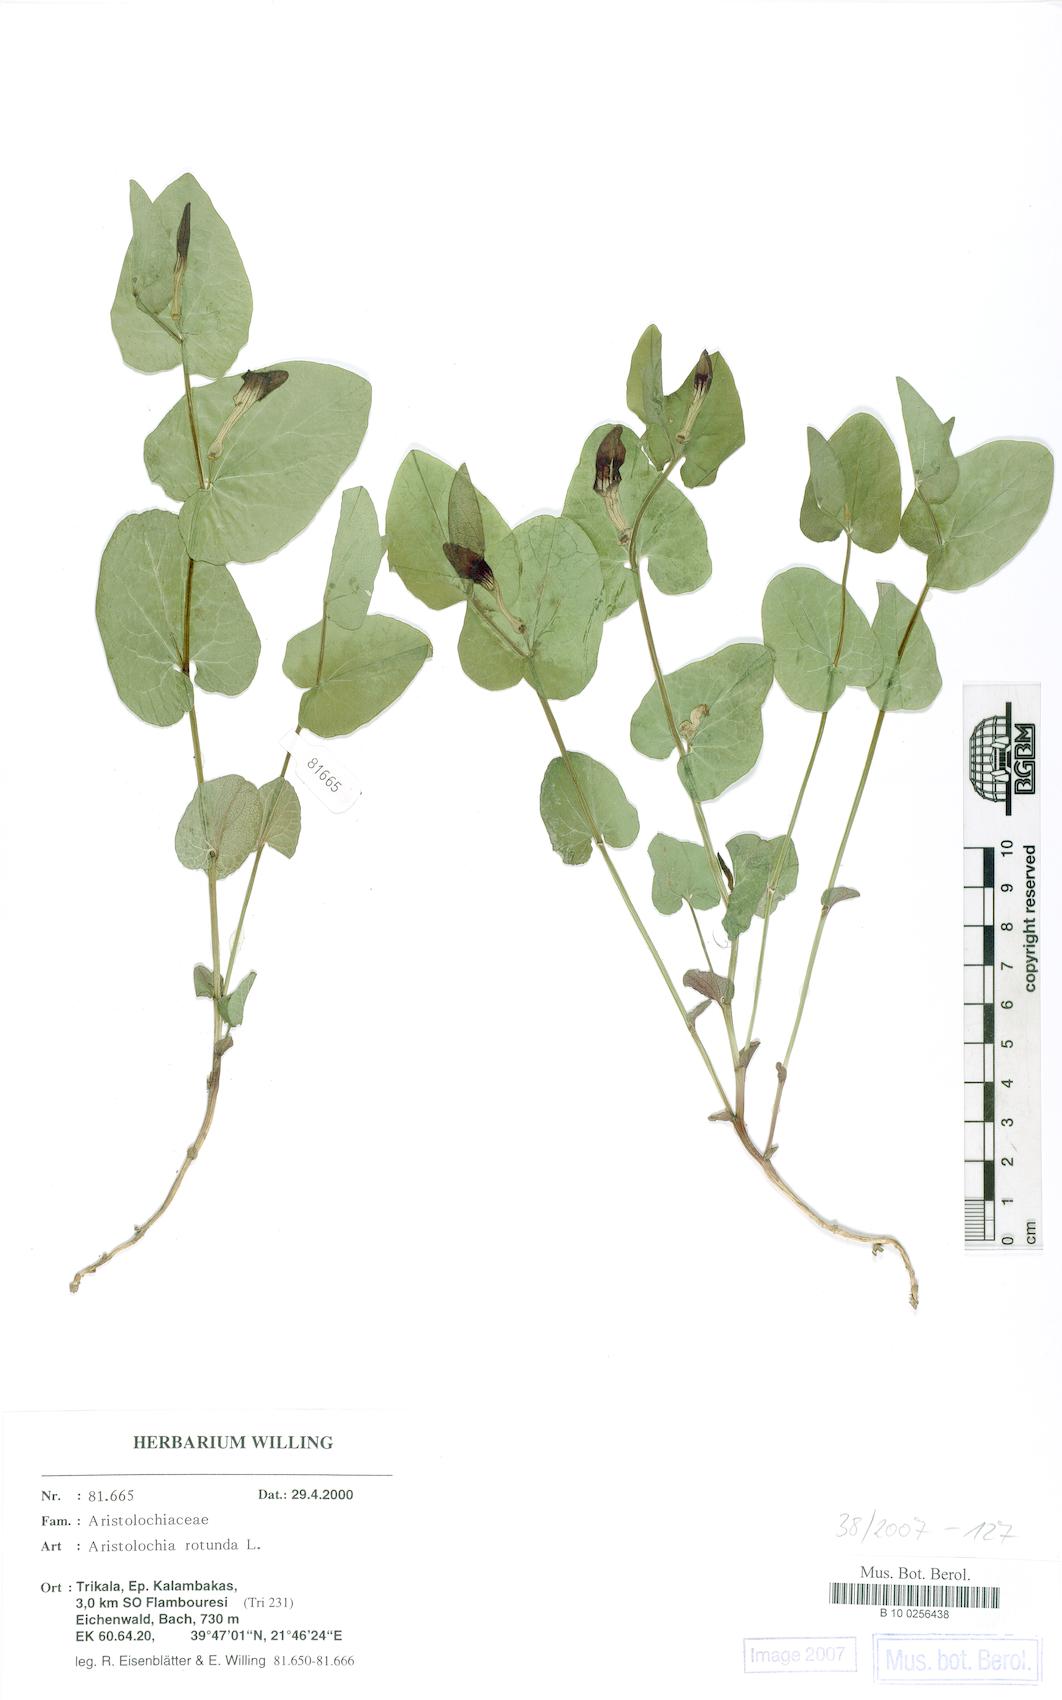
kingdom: Plantae
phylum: Tracheophyta
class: Magnoliopsida
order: Piperales
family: Aristolochiaceae
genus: Aristolochia
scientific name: Aristolochia rotunda
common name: Smearwort
